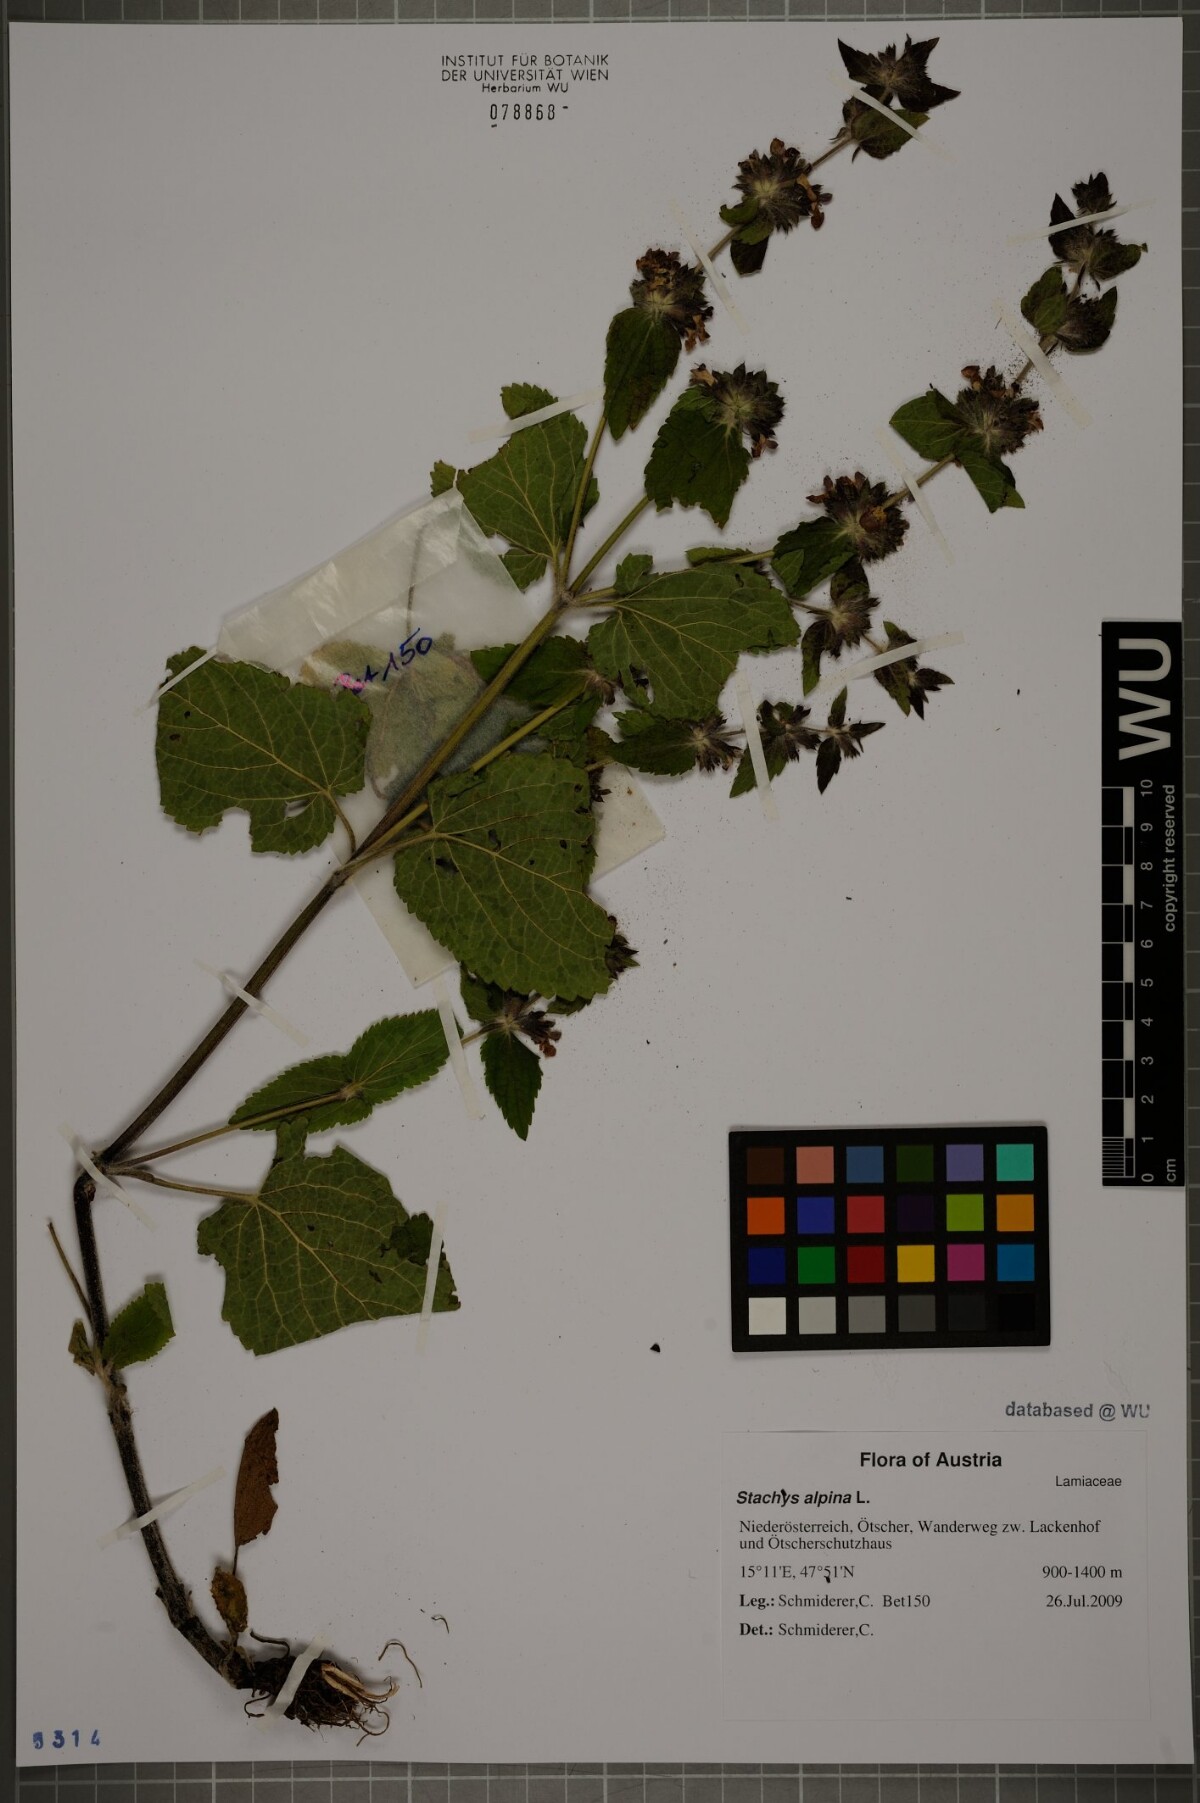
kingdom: Plantae
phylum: Tracheophyta
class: Magnoliopsida
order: Lamiales
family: Lamiaceae
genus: Stachys
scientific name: Stachys alpina
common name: Limestone woundwort
